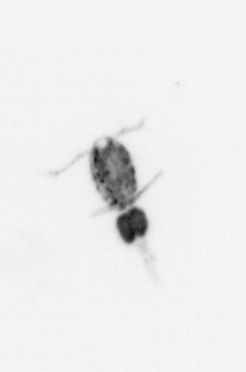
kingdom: Animalia
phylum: Arthropoda
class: Copepoda
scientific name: Copepoda
